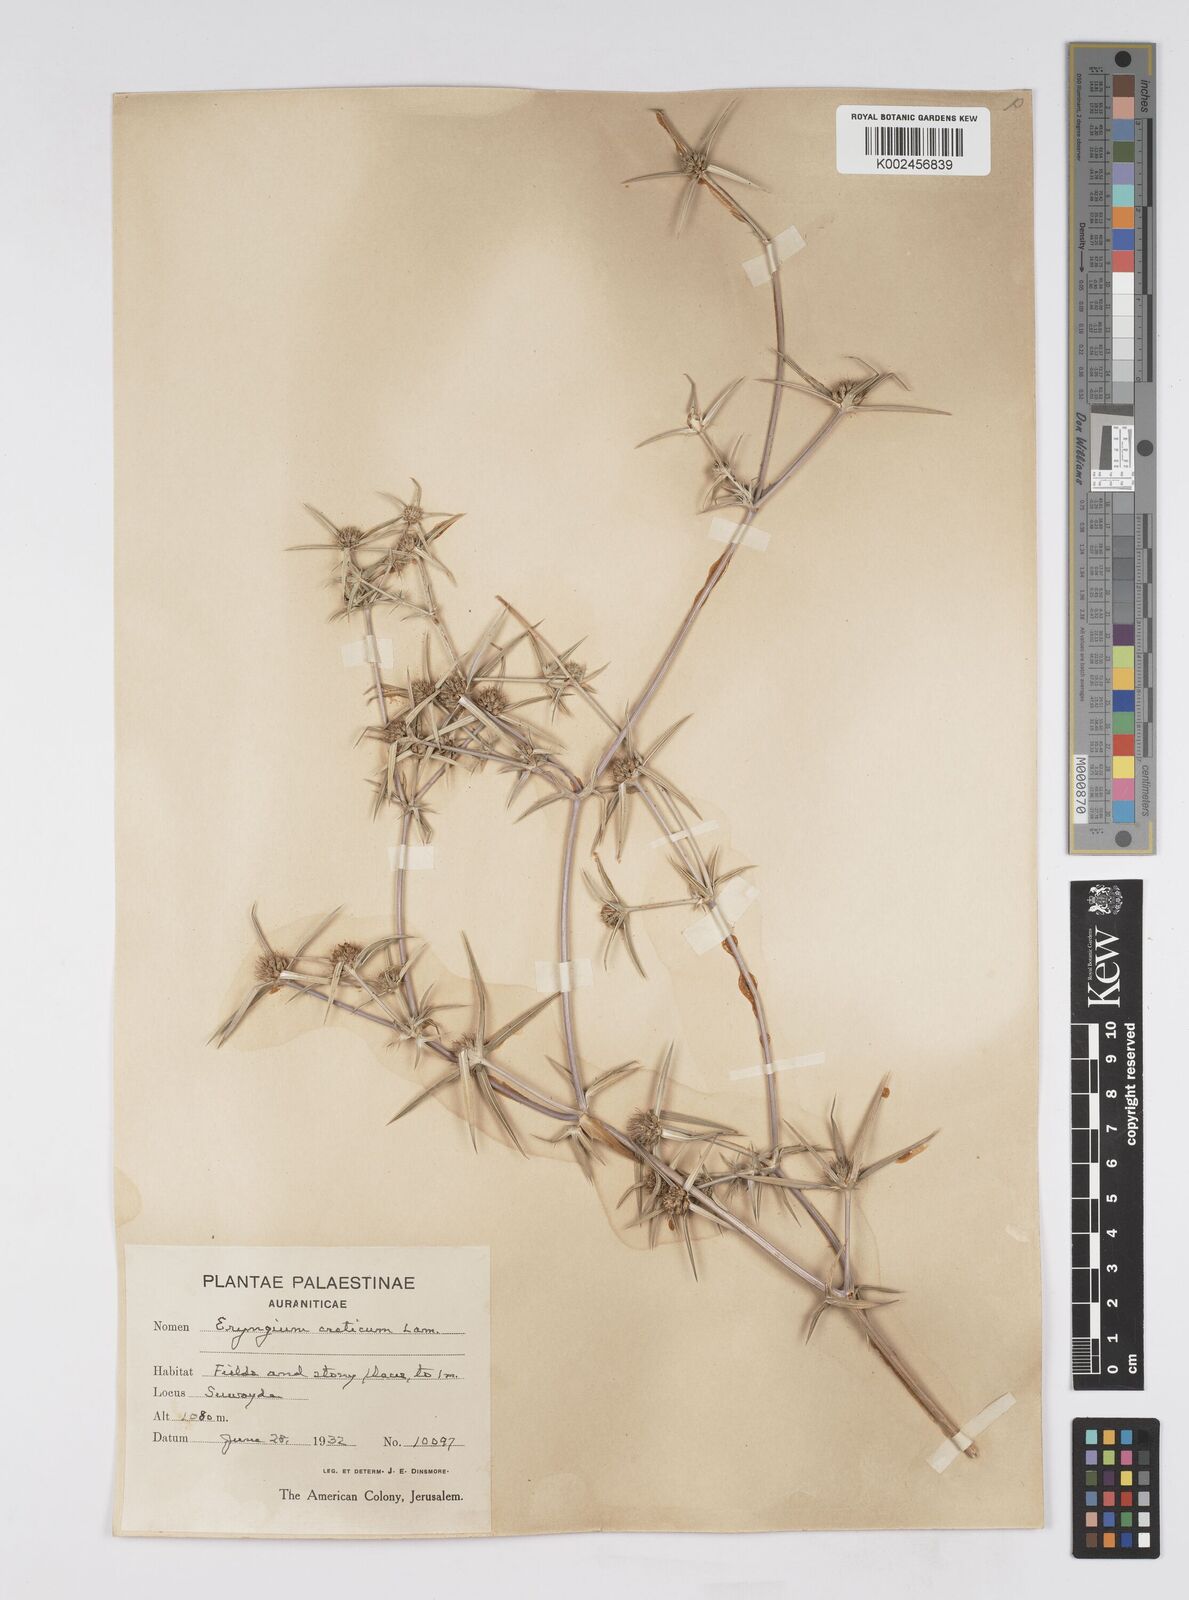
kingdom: Plantae
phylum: Tracheophyta
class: Magnoliopsida
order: Apiales
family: Apiaceae
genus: Eryngium
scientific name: Eryngium creticum
